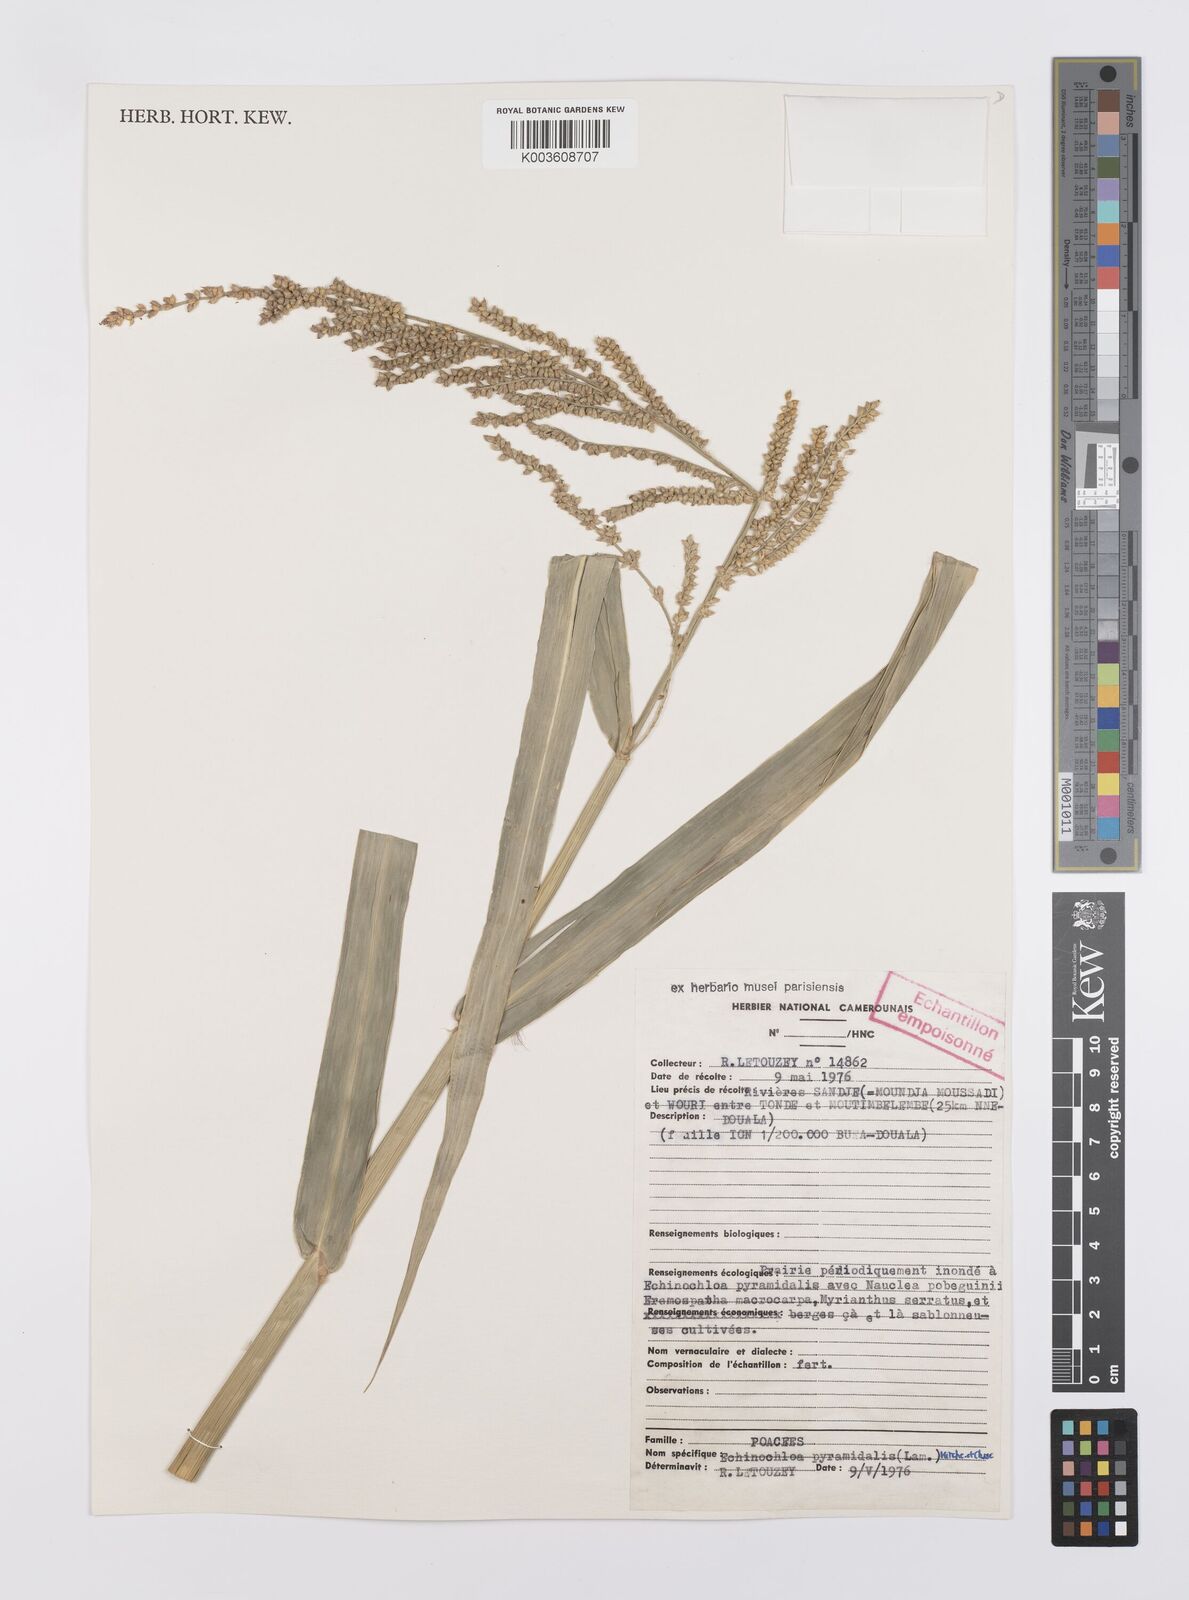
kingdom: Plantae
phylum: Tracheophyta
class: Liliopsida
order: Poales
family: Poaceae
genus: Echinochloa
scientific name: Echinochloa pyramidalis
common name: Antelope grass
